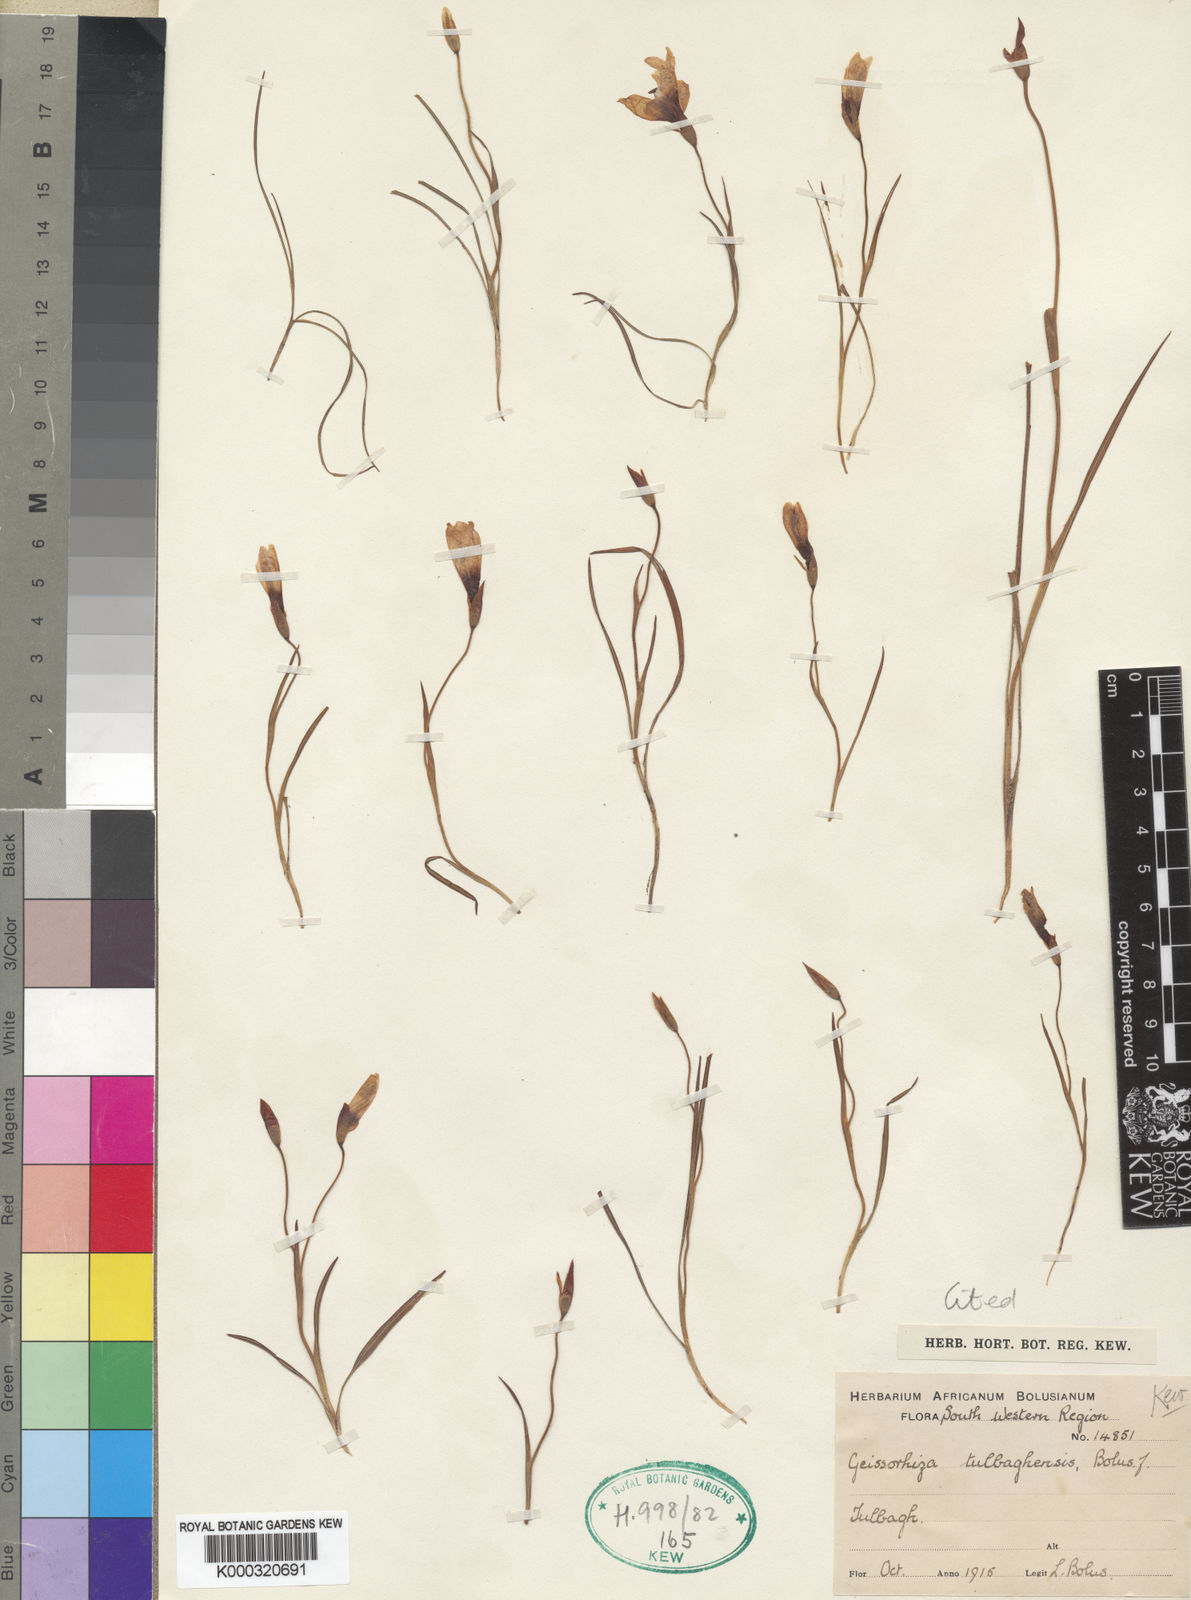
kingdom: Plantae
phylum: Tracheophyta
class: Liliopsida
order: Asparagales
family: Iridaceae
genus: Geissorhiza
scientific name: Geissorhiza tulbaghensis
